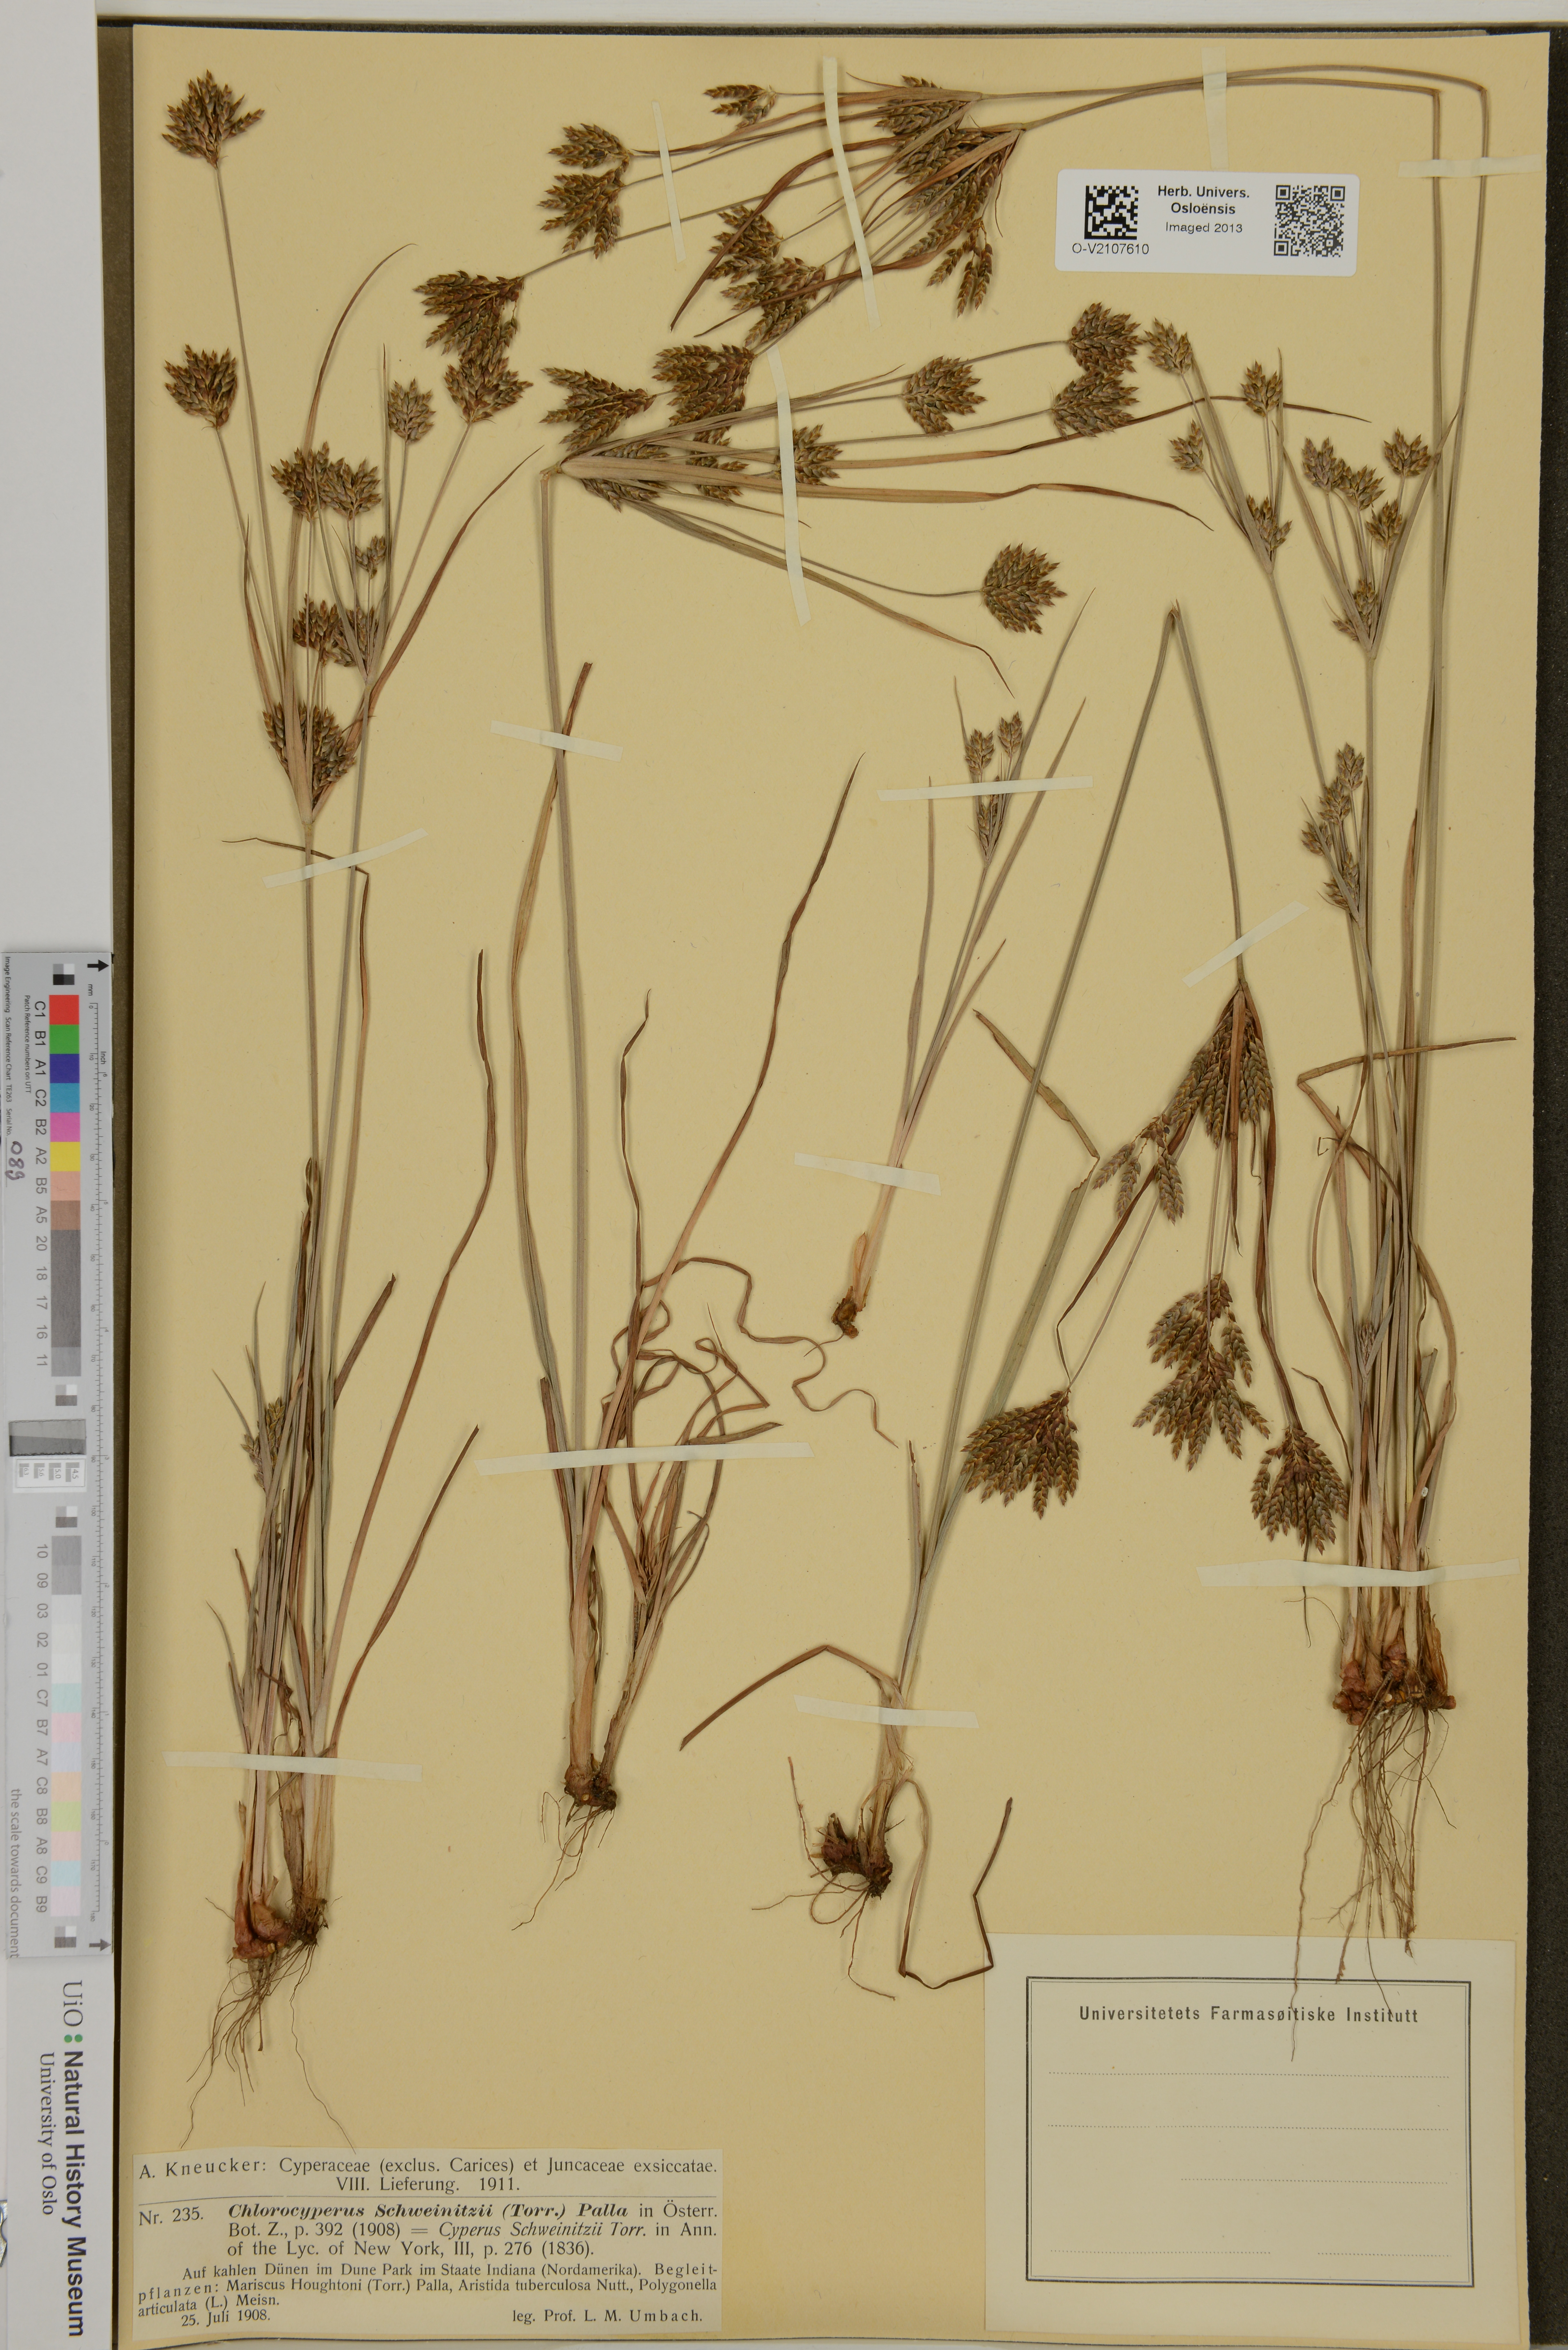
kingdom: Plantae
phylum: Tracheophyta
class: Liliopsida
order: Poales
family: Cyperaceae
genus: Cyperus
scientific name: Cyperus schweinitzii
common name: Schweinitz's cyperus
